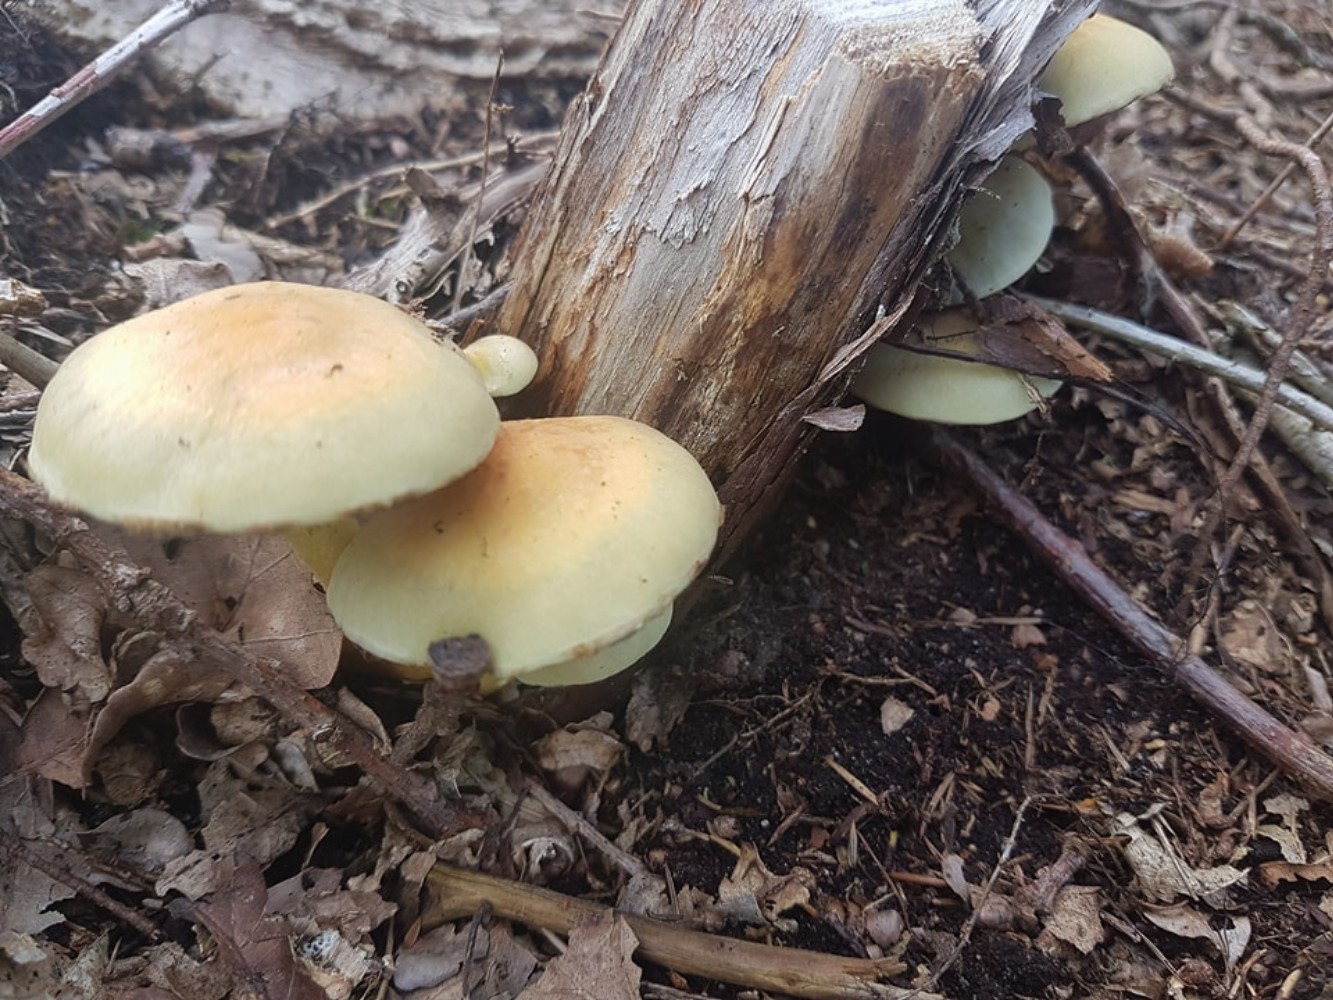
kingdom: Fungi
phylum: Basidiomycota
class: Agaricomycetes
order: Agaricales
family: Strophariaceae
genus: Hypholoma
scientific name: Hypholoma fasciculare
